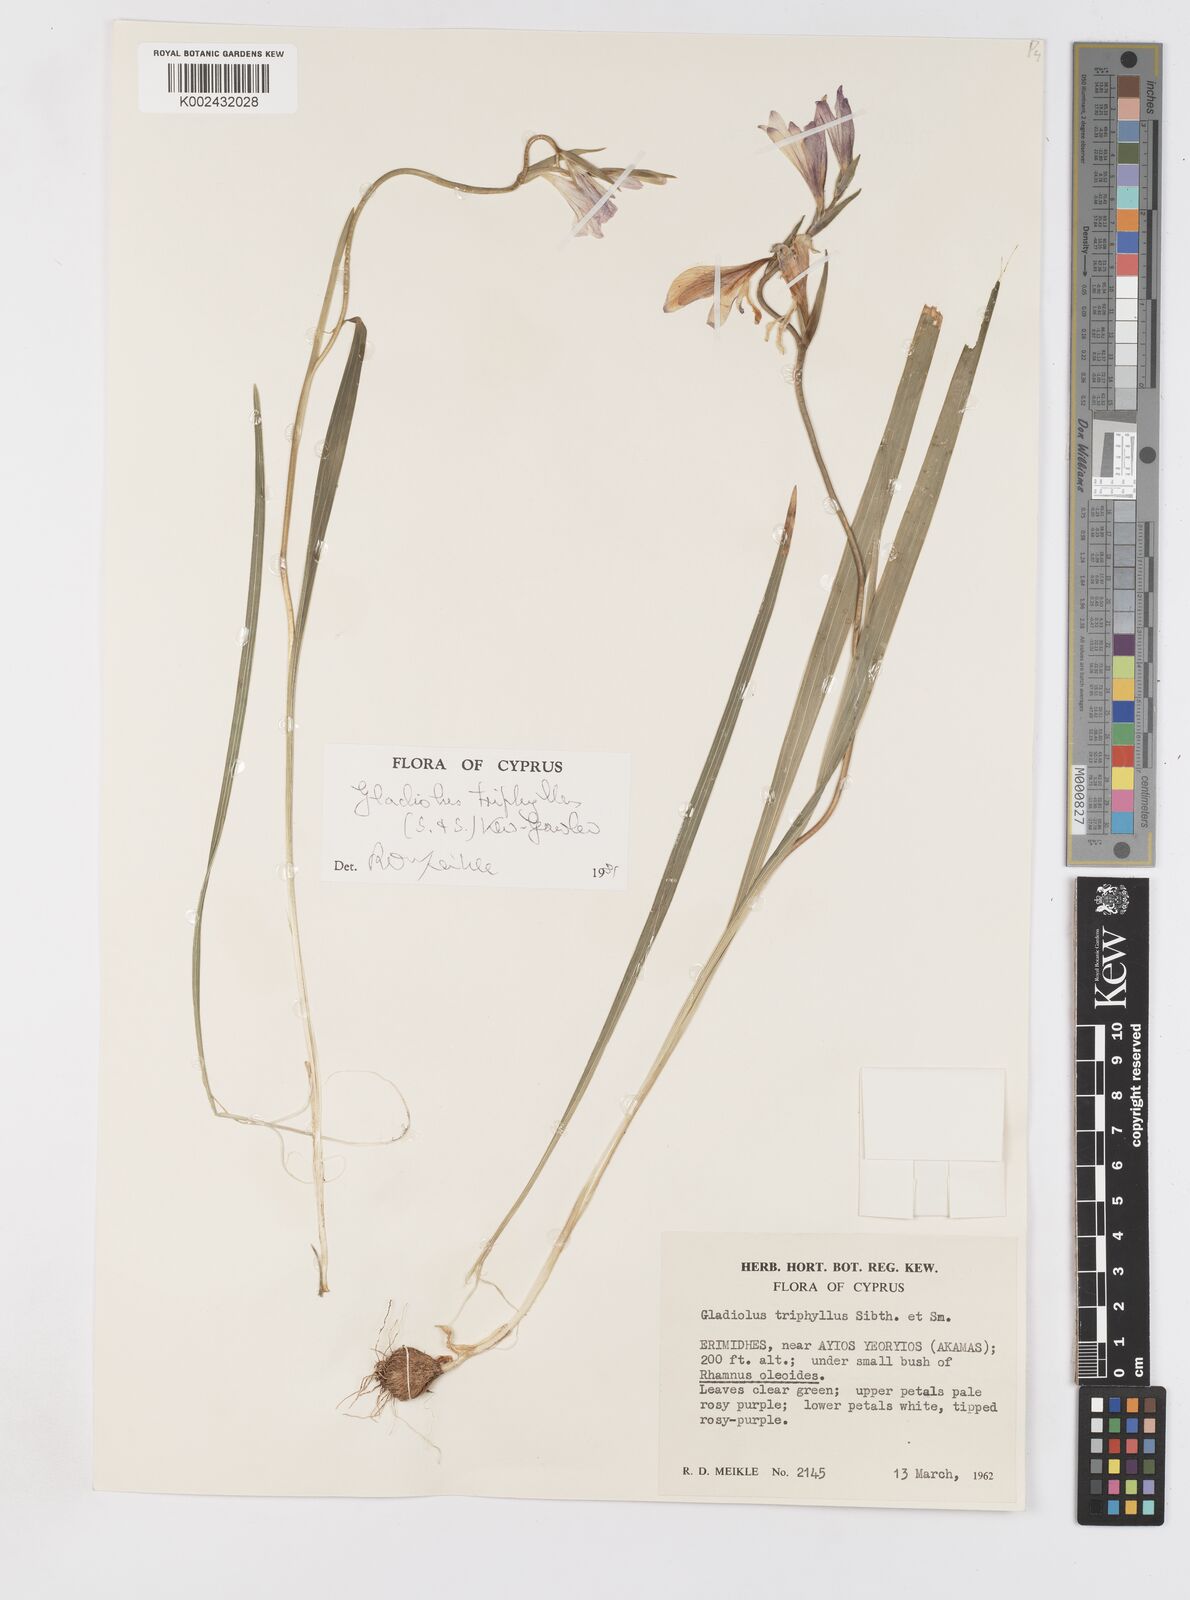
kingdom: Plantae
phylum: Tracheophyta
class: Liliopsida
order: Asparagales
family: Iridaceae
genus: Gladiolus
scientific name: Gladiolus triphyllus
